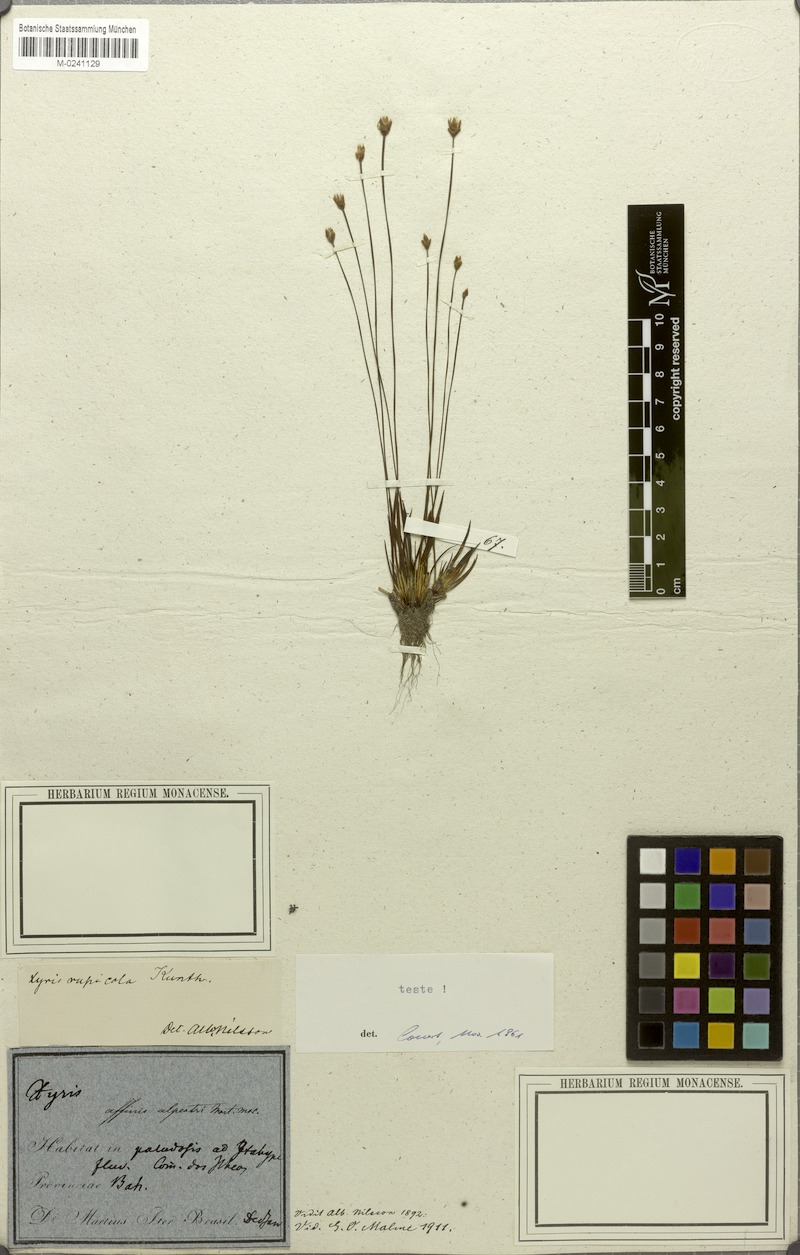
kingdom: Plantae
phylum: Tracheophyta
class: Liliopsida
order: Poales
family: Xyridaceae
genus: Xyris
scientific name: Xyris rupicola
